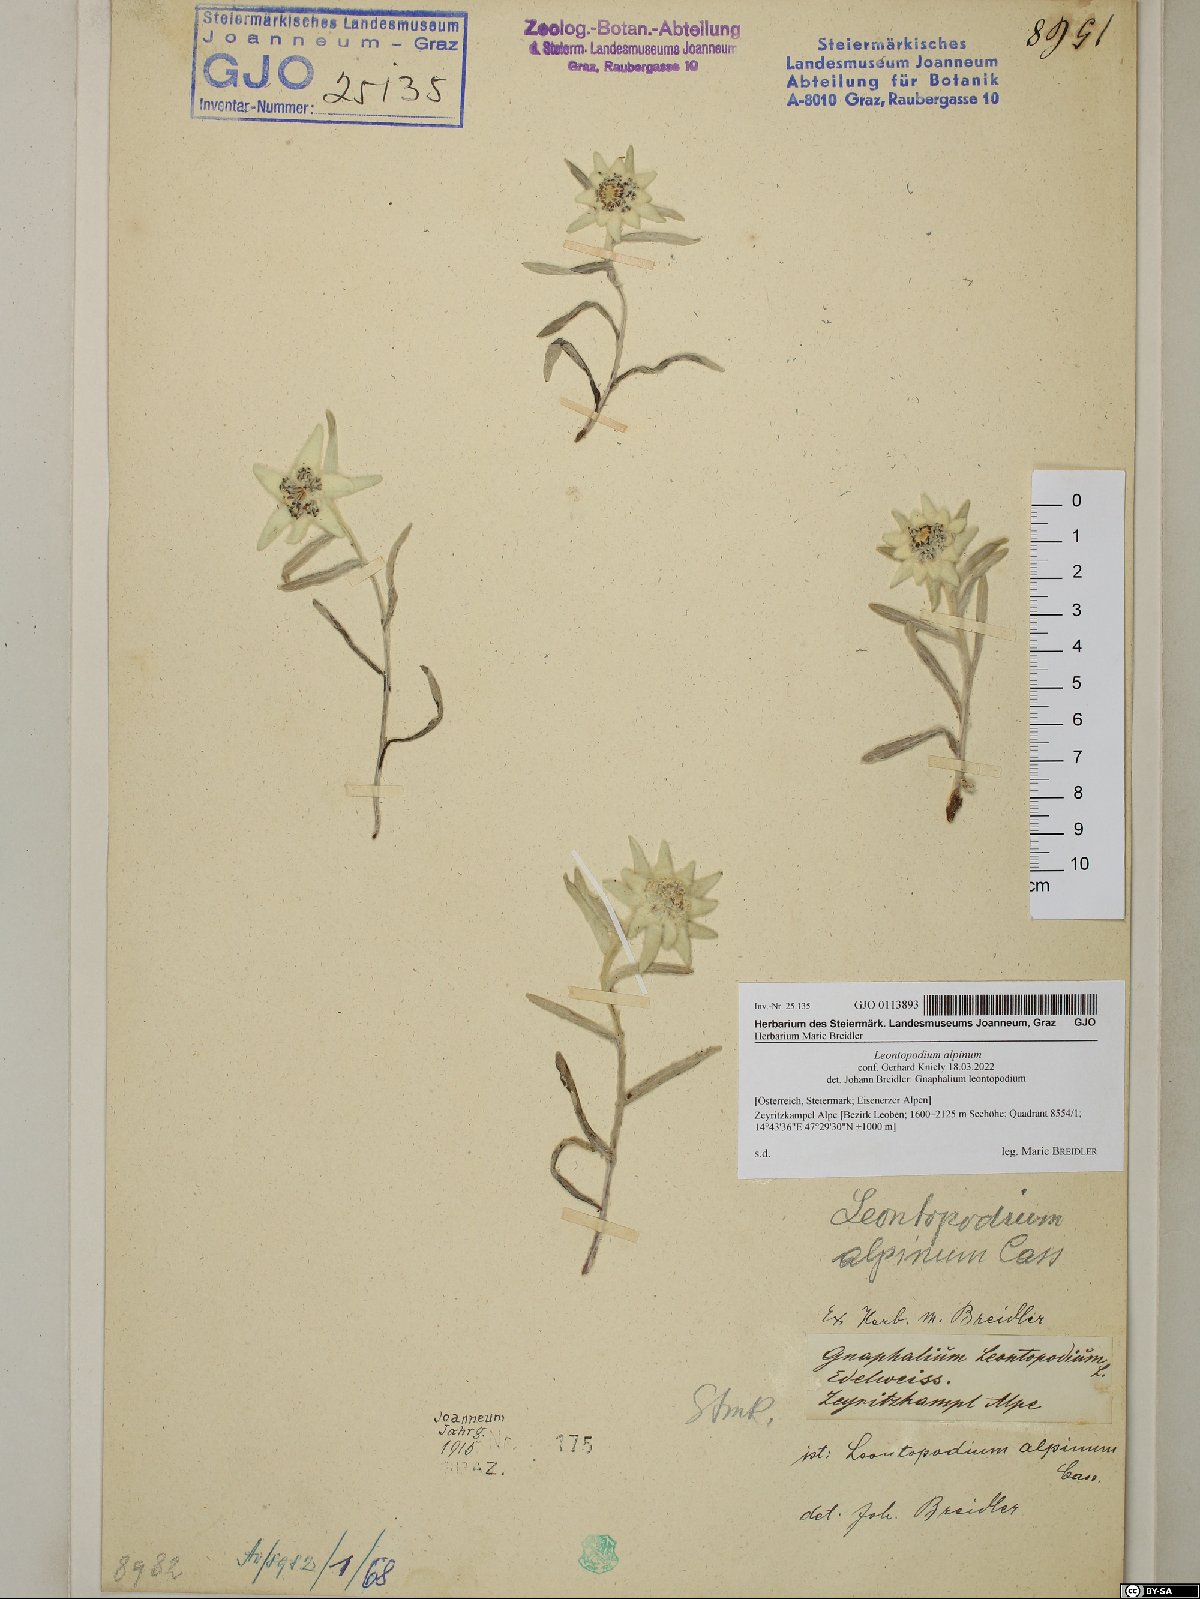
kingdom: Plantae
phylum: Tracheophyta
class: Magnoliopsida
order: Asterales
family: Asteraceae
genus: Leontopodium
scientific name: Leontopodium nivale
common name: Edelweiss
